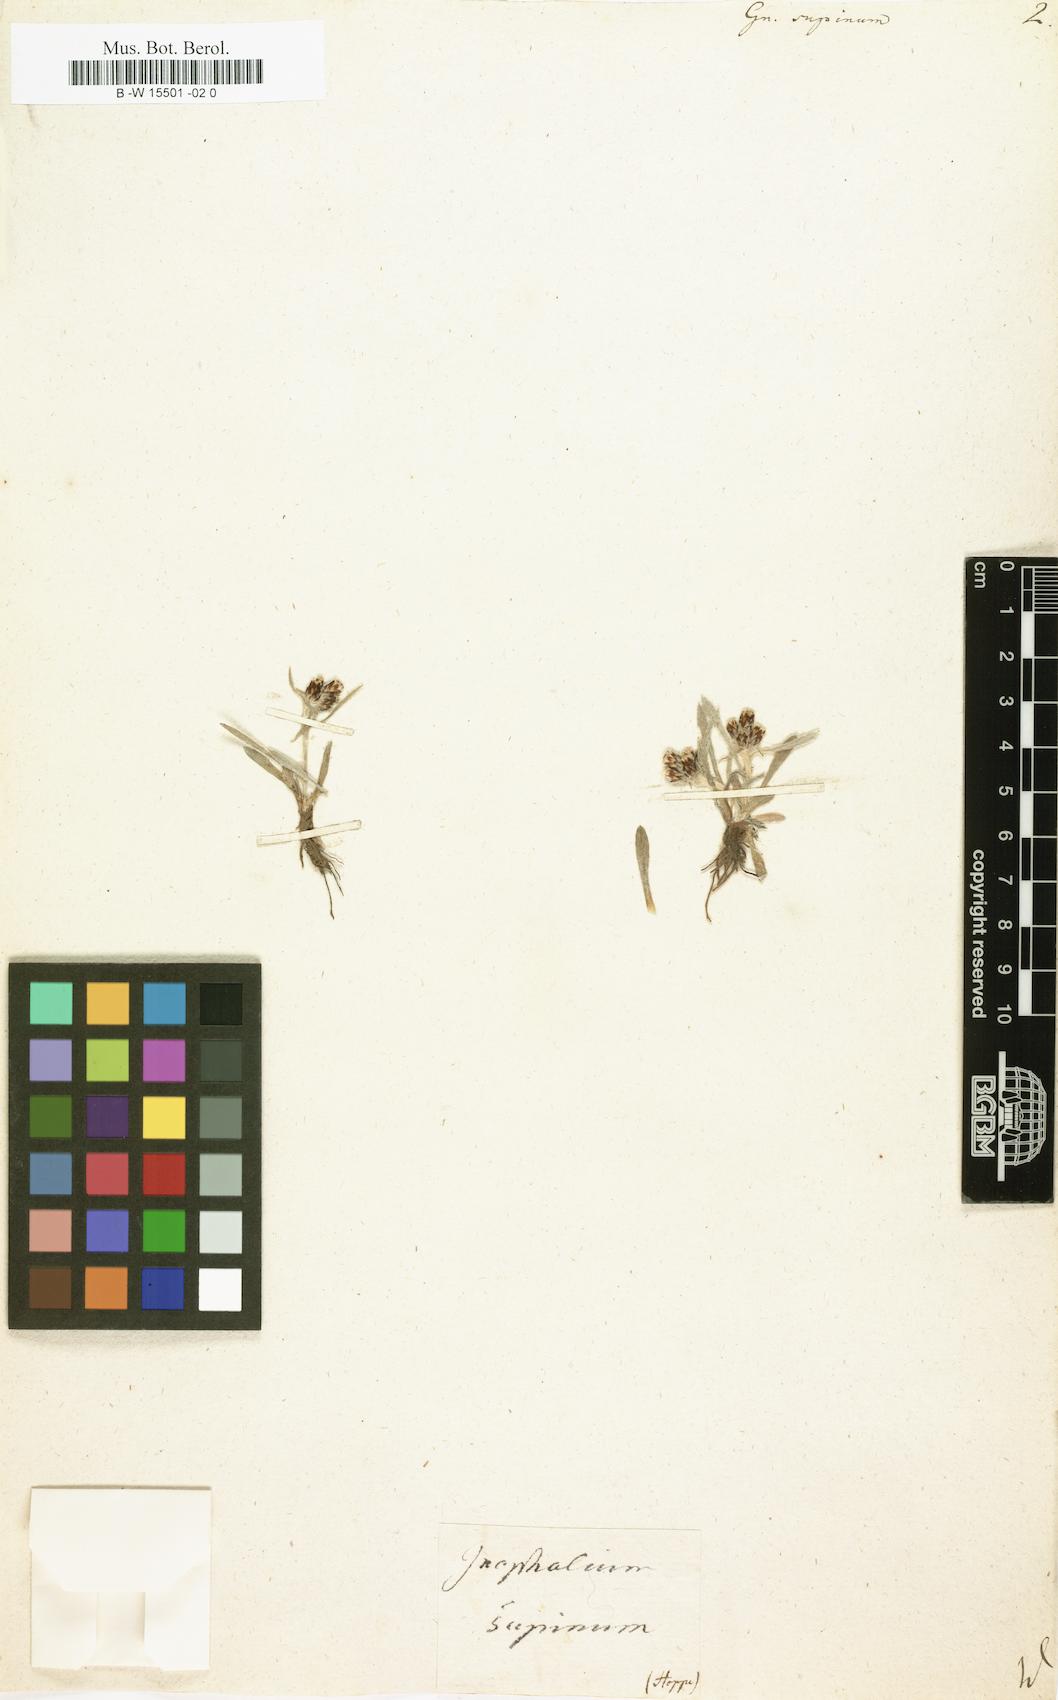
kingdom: Plantae
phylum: Tracheophyta
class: Magnoliopsida
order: Asterales
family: Asteraceae
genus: Omalotheca
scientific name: Omalotheca supina
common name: Alpine arctic-cudweed
